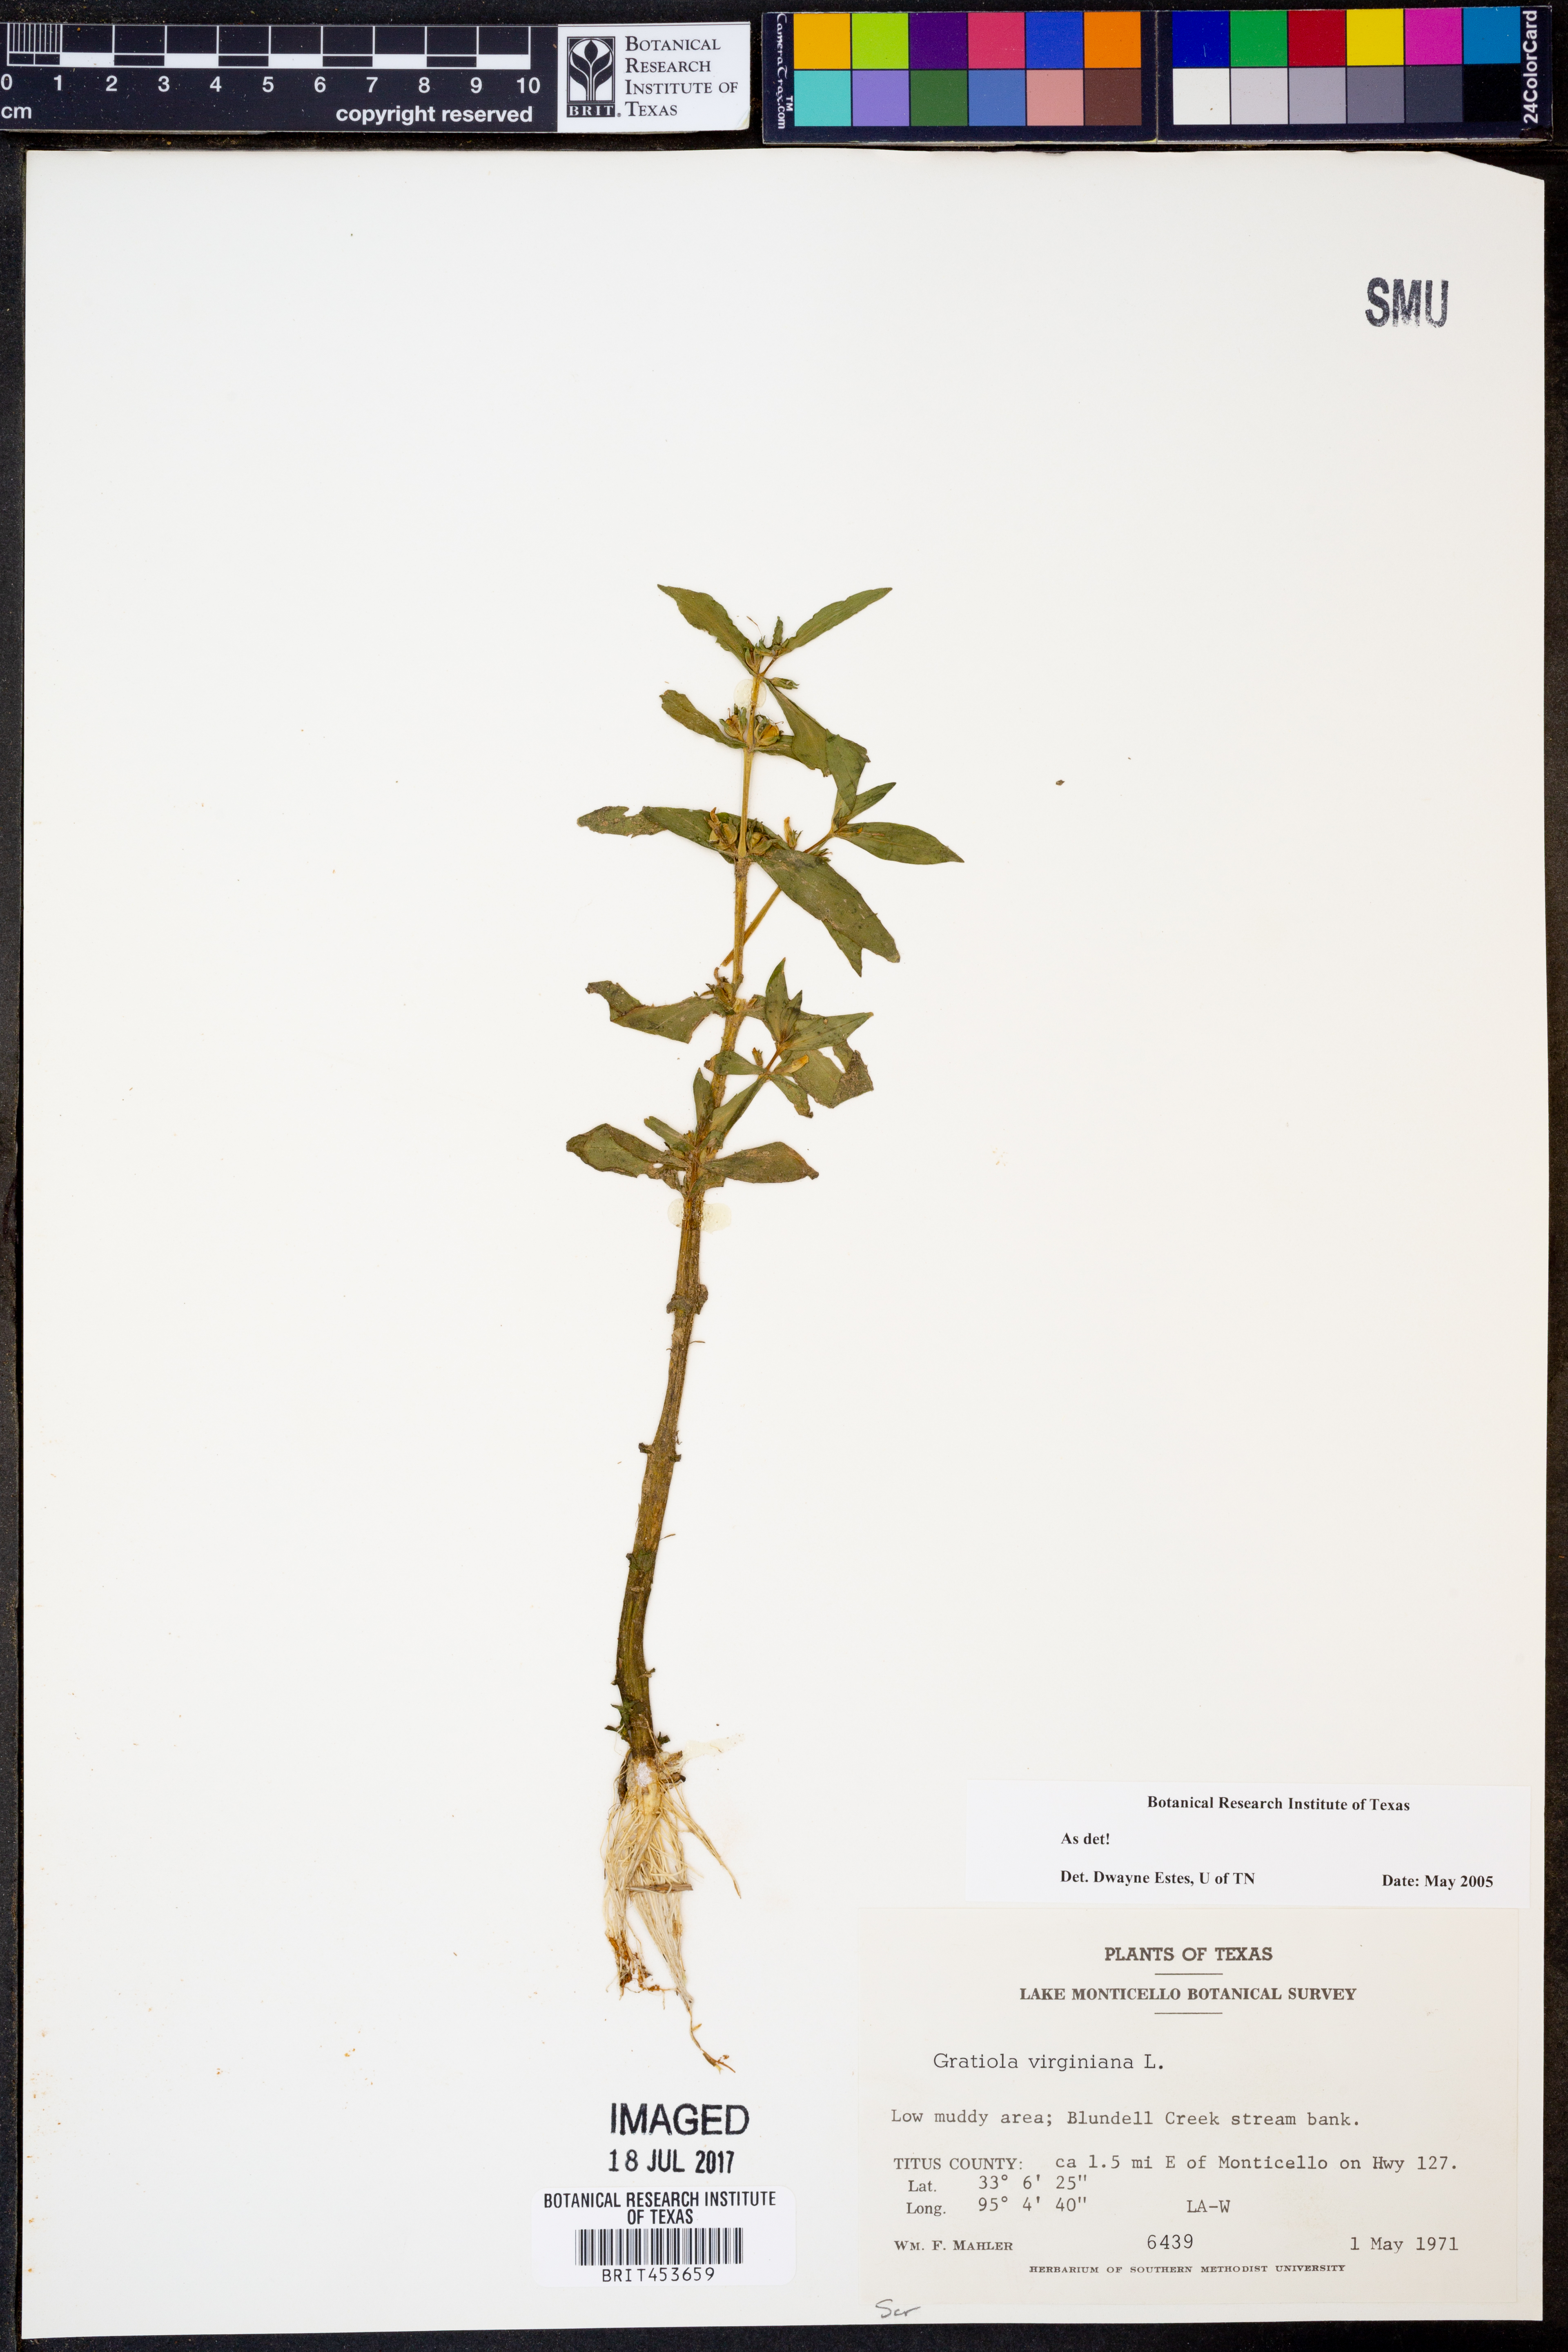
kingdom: Plantae
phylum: Tracheophyta
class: Magnoliopsida
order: Lamiales
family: Plantaginaceae
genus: Gratiola
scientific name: Gratiola virginiana
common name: Roundfruit hedgehyssop
